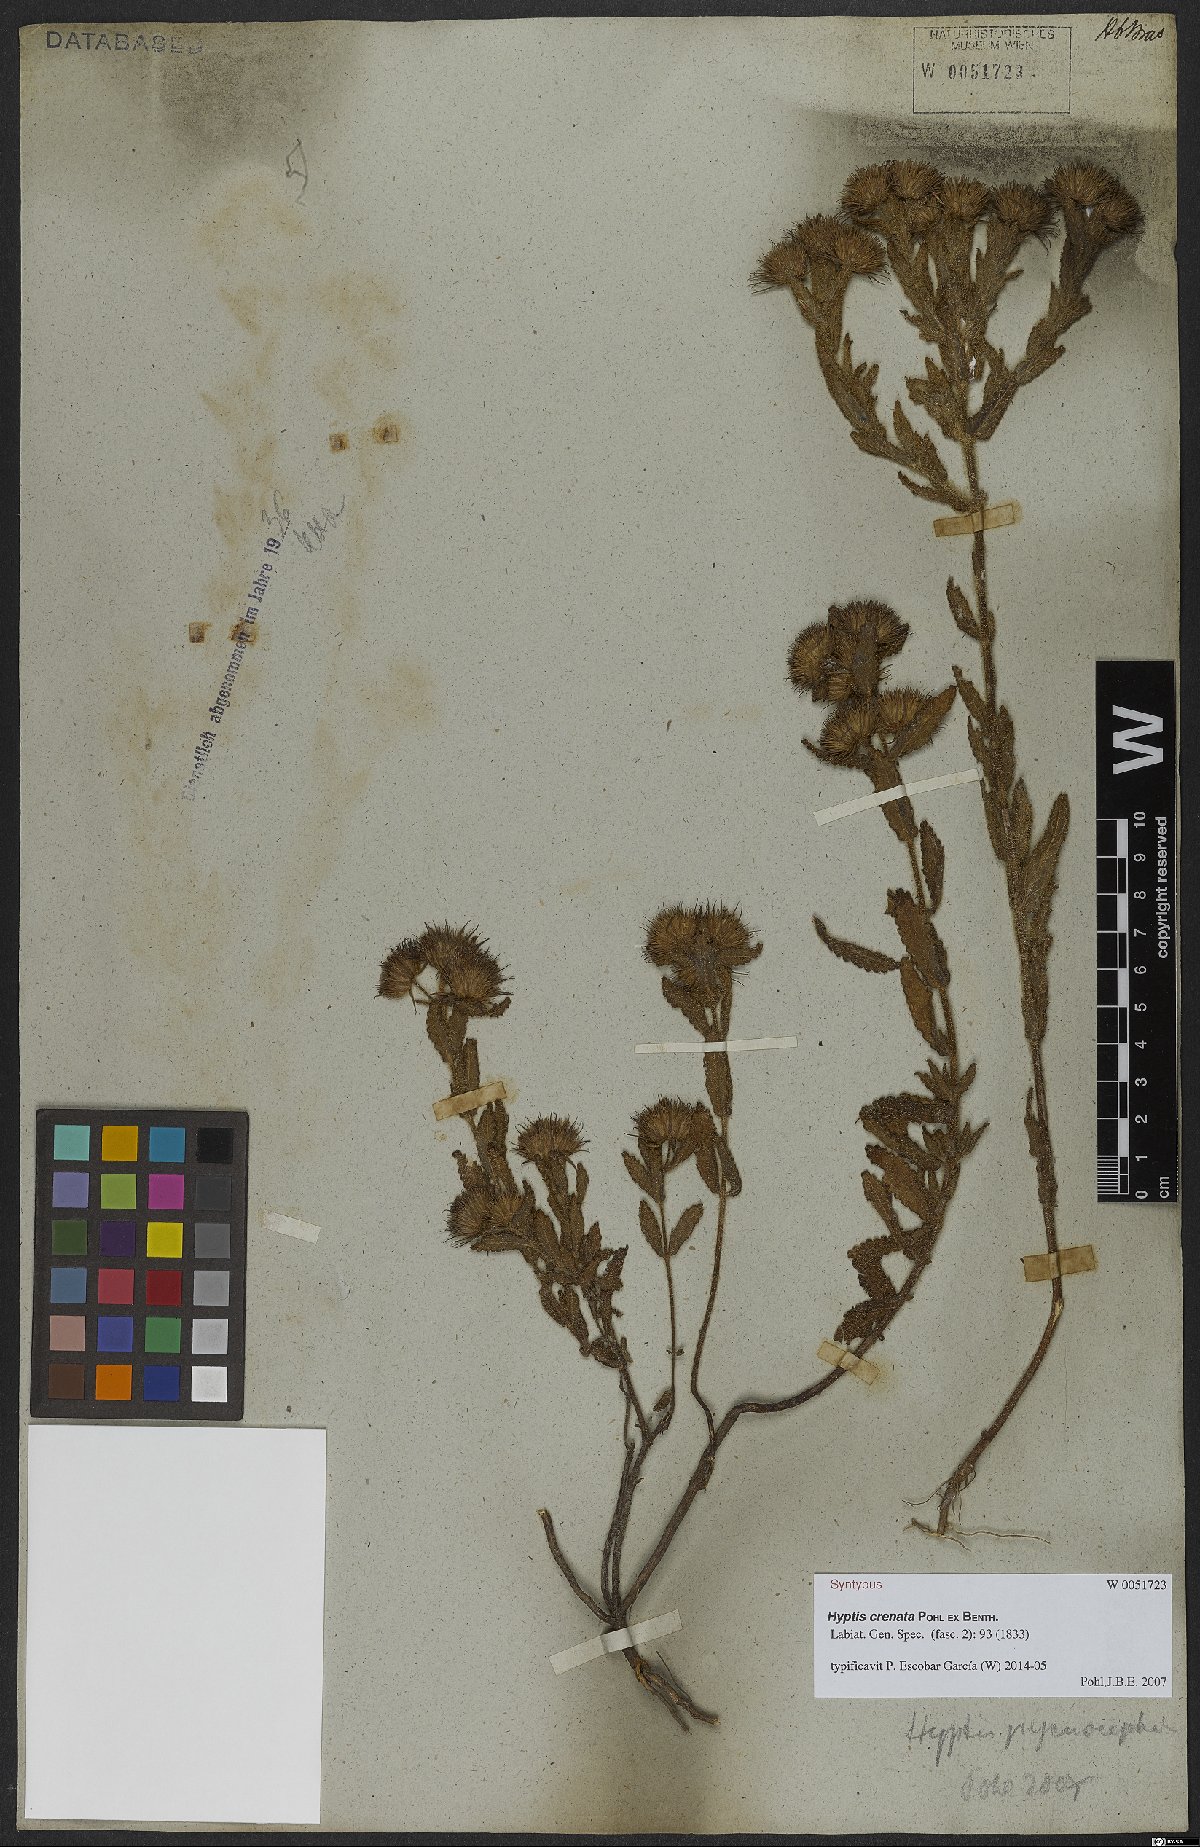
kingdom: Plantae
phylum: Tracheophyta
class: Magnoliopsida
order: Lamiales
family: Lamiaceae
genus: Hyptis
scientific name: Hyptis pycnocephala
